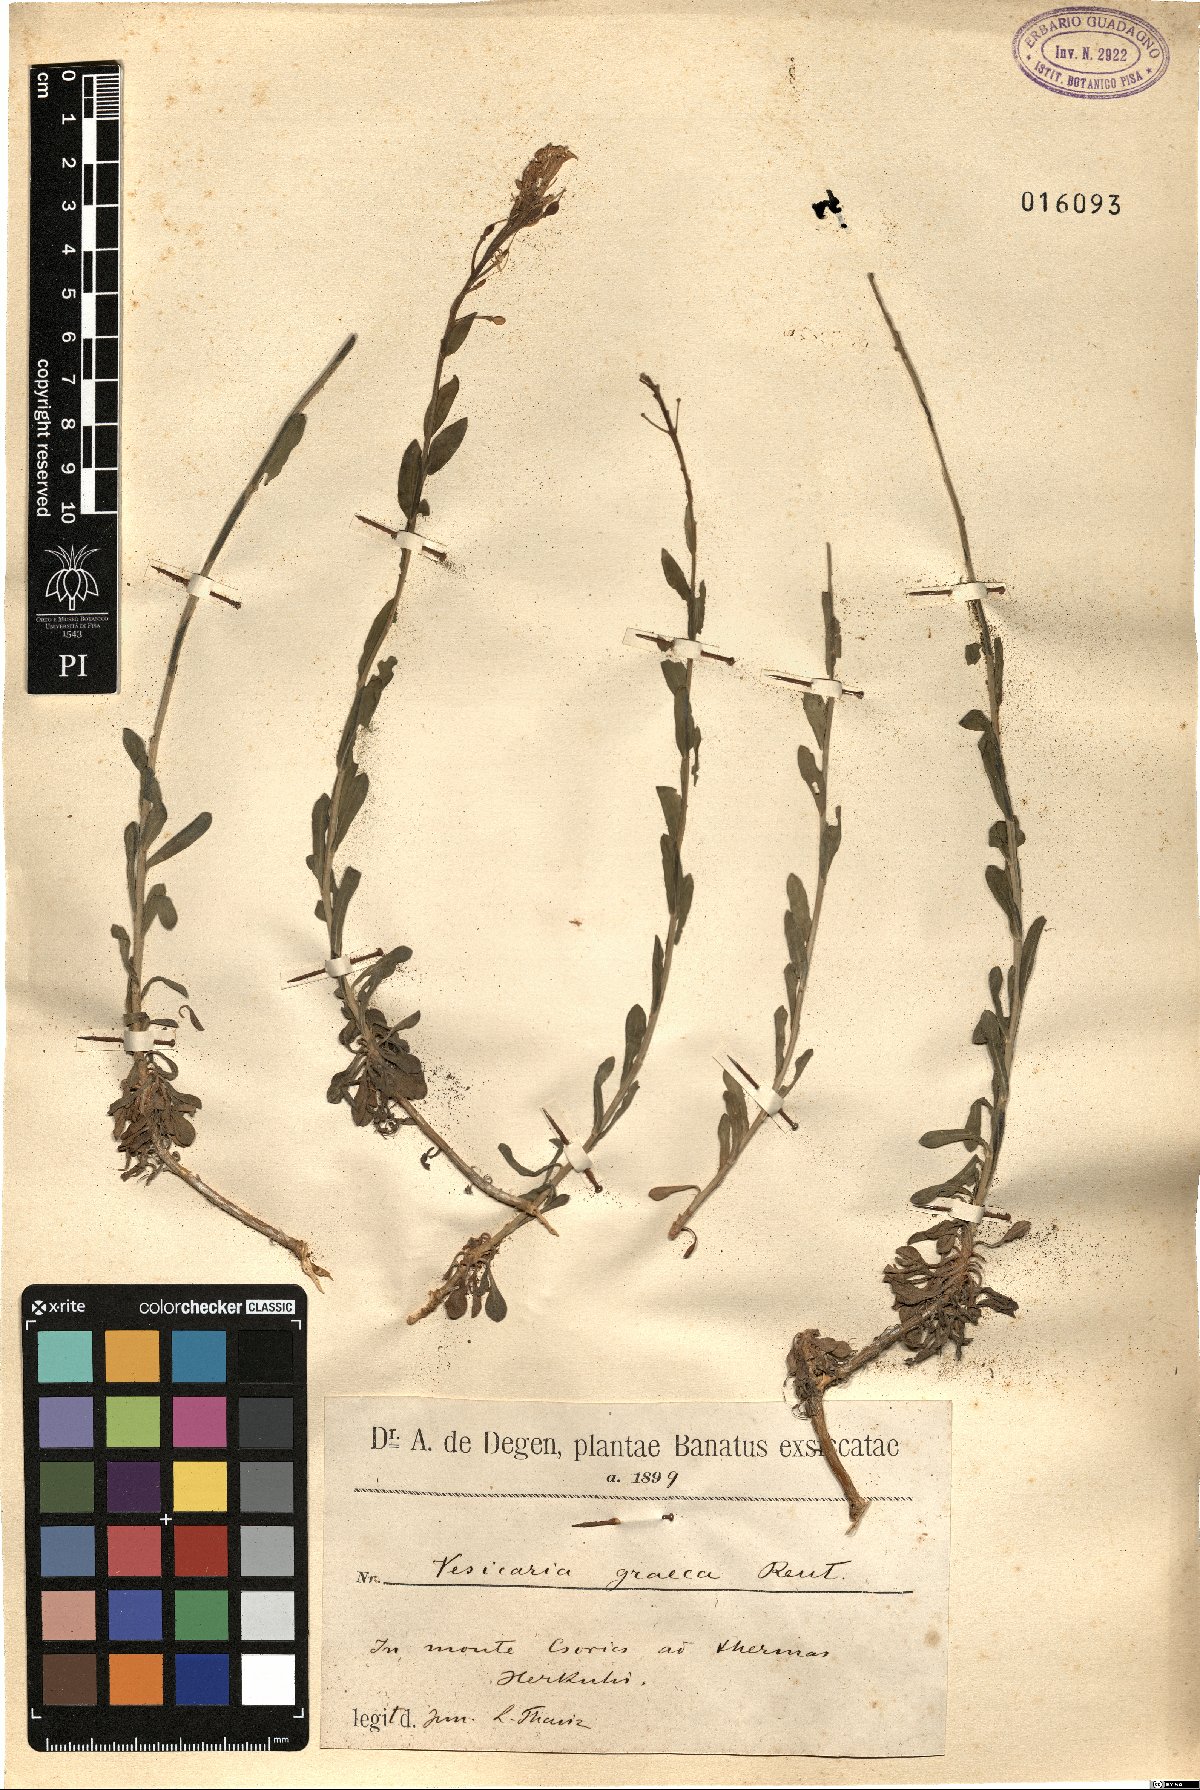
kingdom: Plantae
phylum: Tracheophyta
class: Magnoliopsida
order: Brassicales
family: Brassicaceae
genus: Alyssoides
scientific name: Alyssoides utriculata
